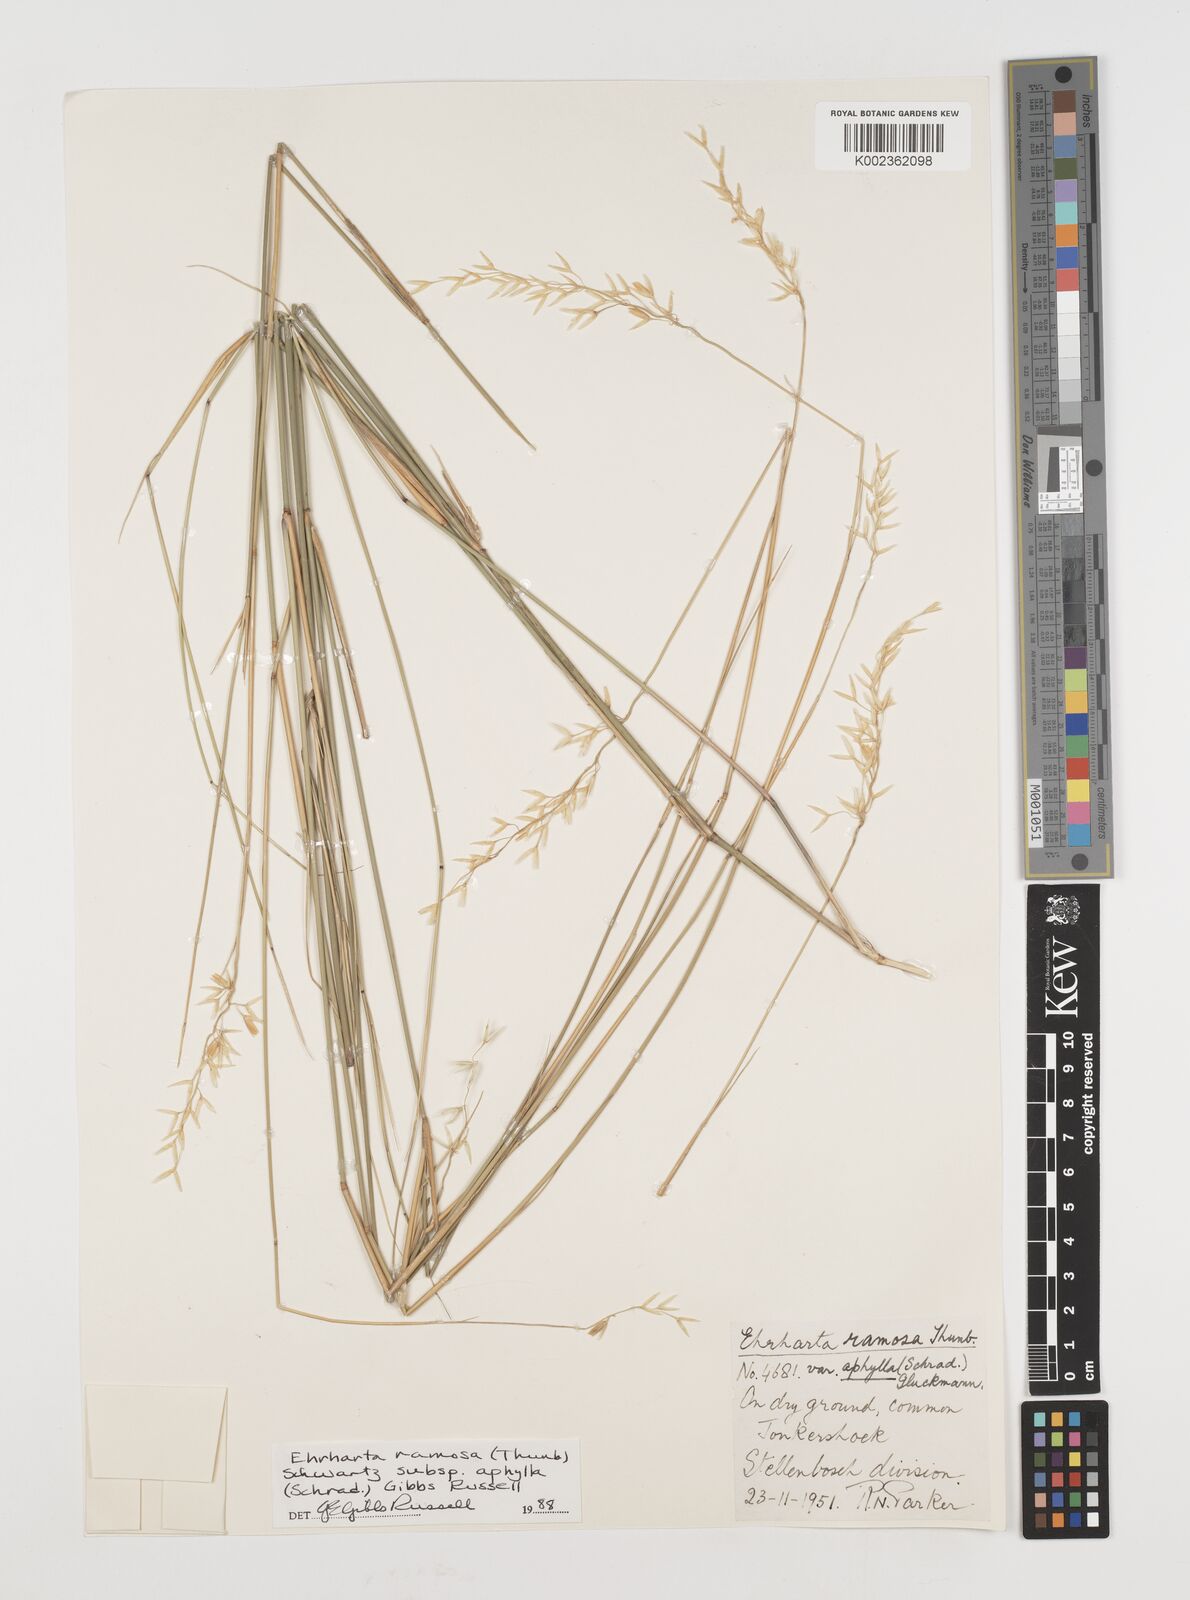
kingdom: Plantae
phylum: Tracheophyta
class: Liliopsida
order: Poales
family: Poaceae
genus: Ehrharta
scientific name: Ehrharta digyna
